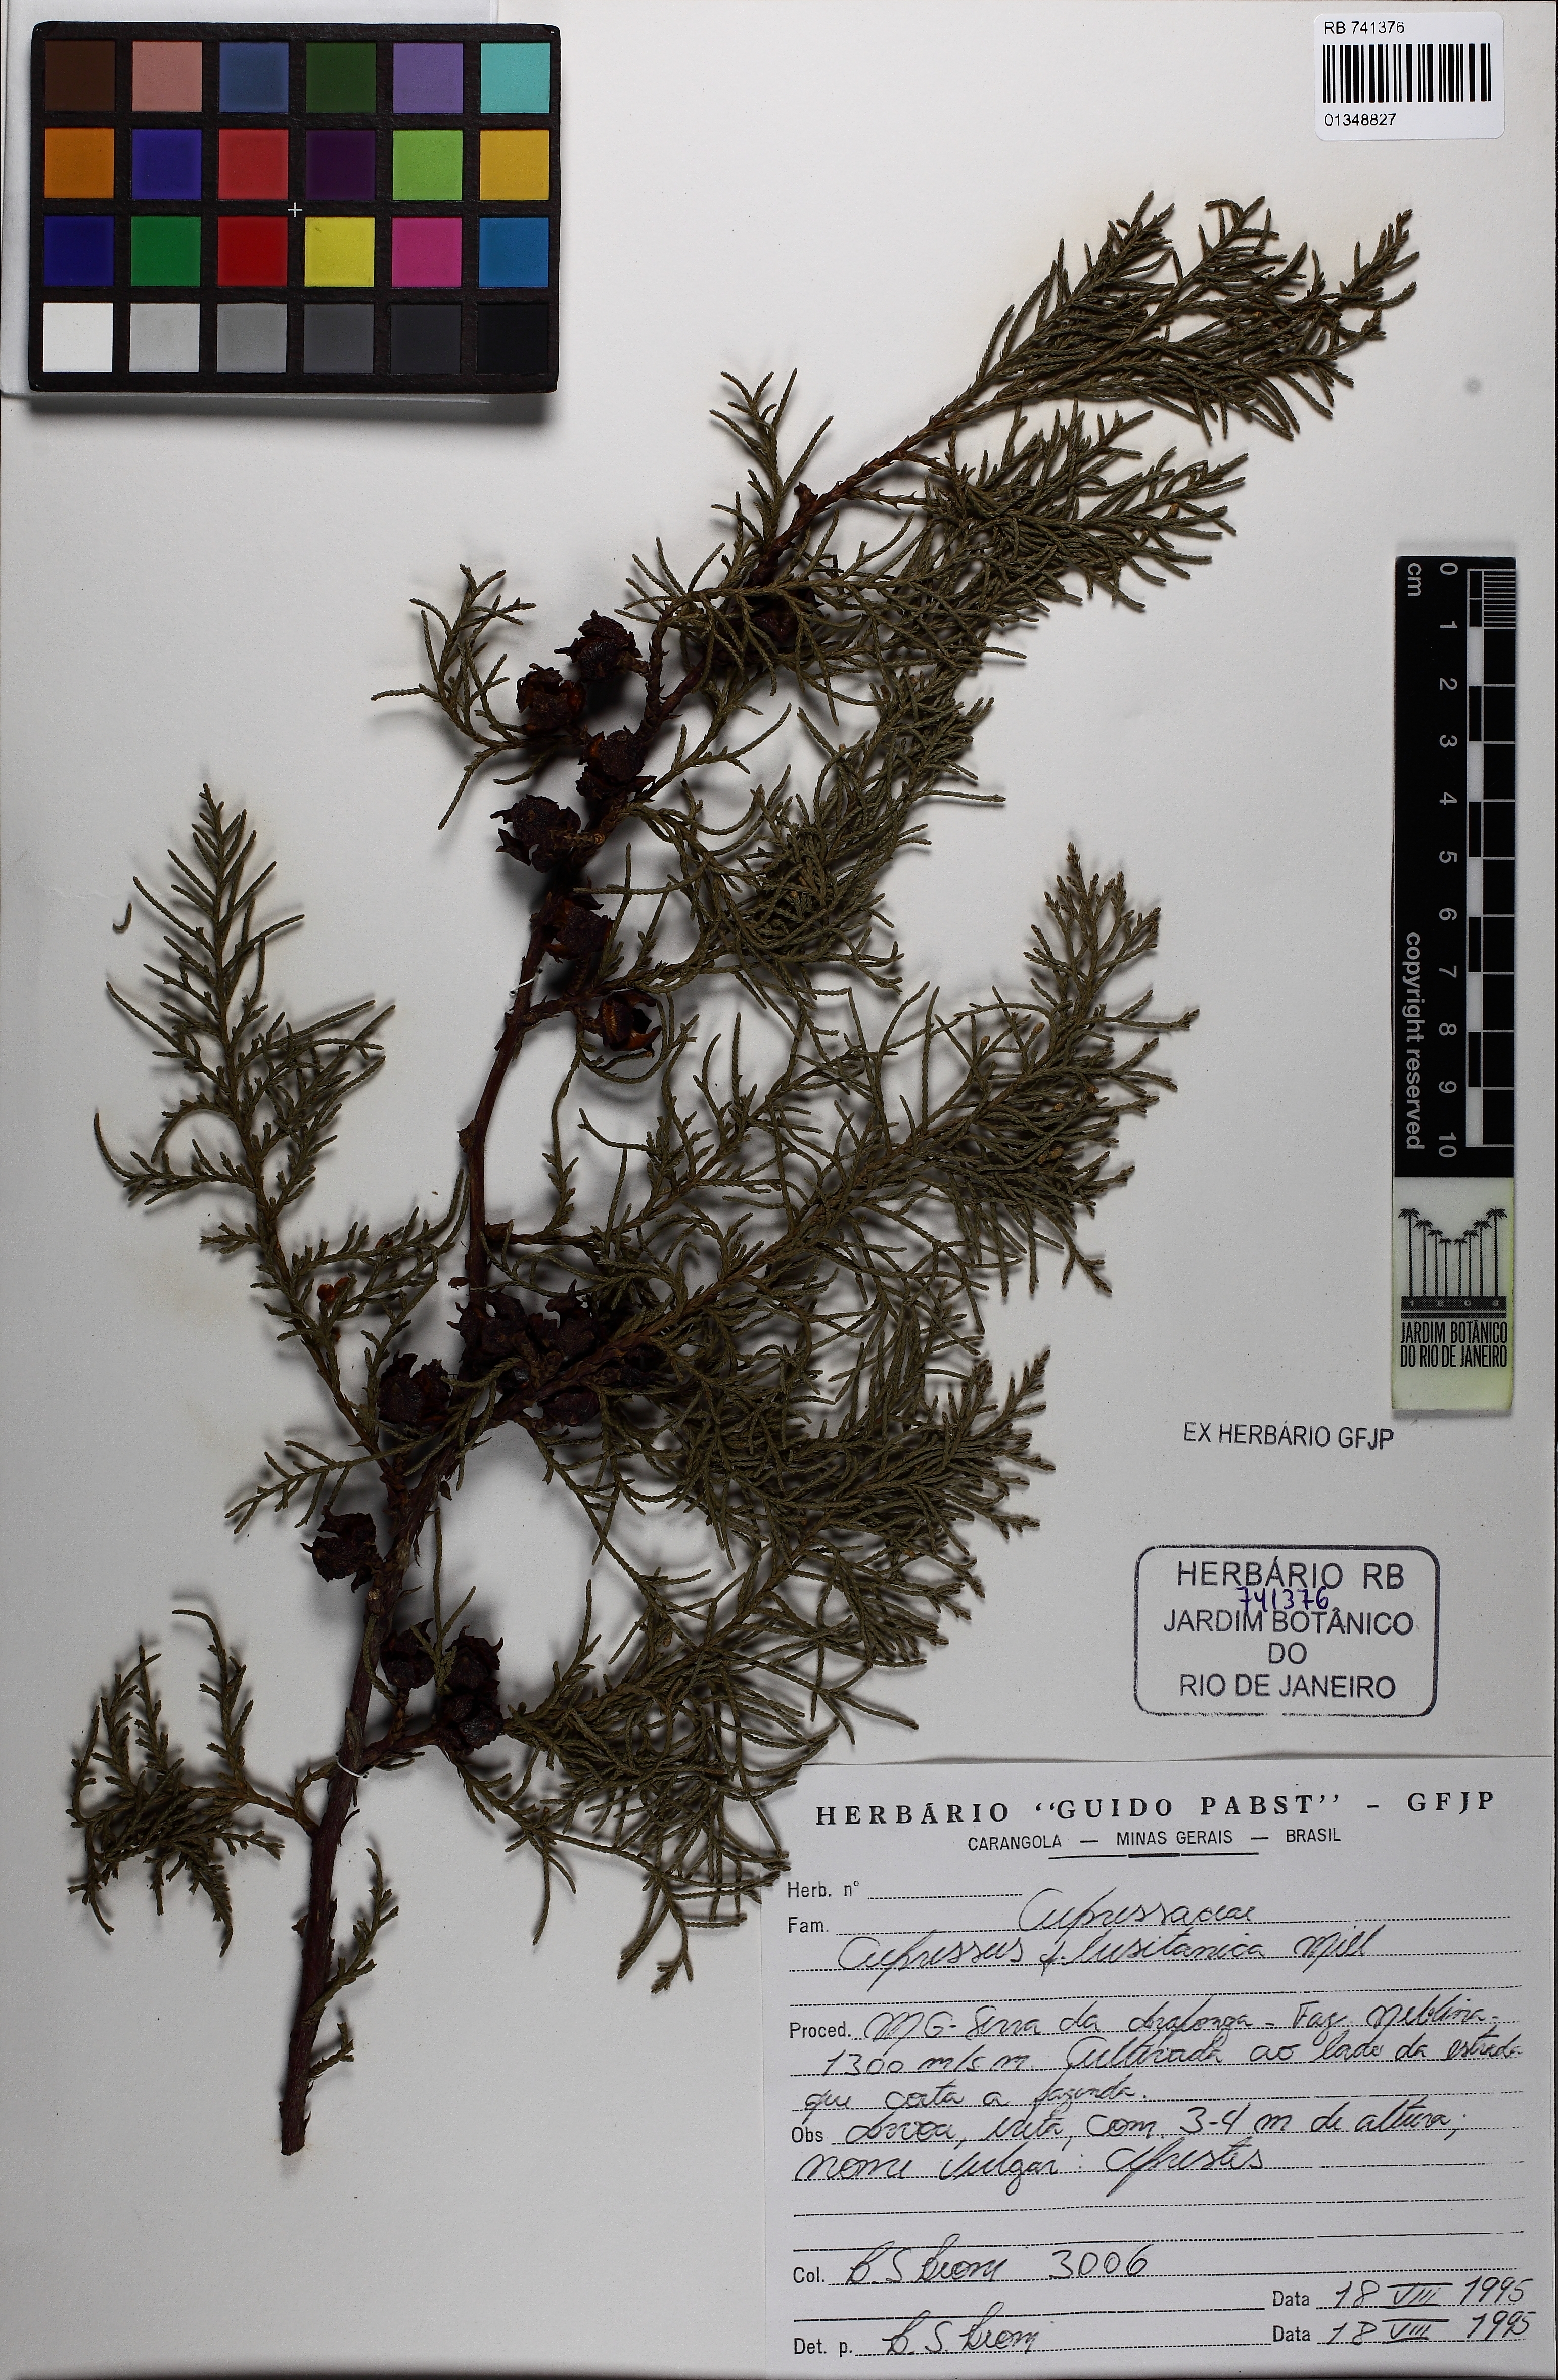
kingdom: Plantae
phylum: Tracheophyta
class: Pinopsida
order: Pinales
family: Cupressaceae
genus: Cupressus
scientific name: Cupressus lusitanica
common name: Mexican cypress
